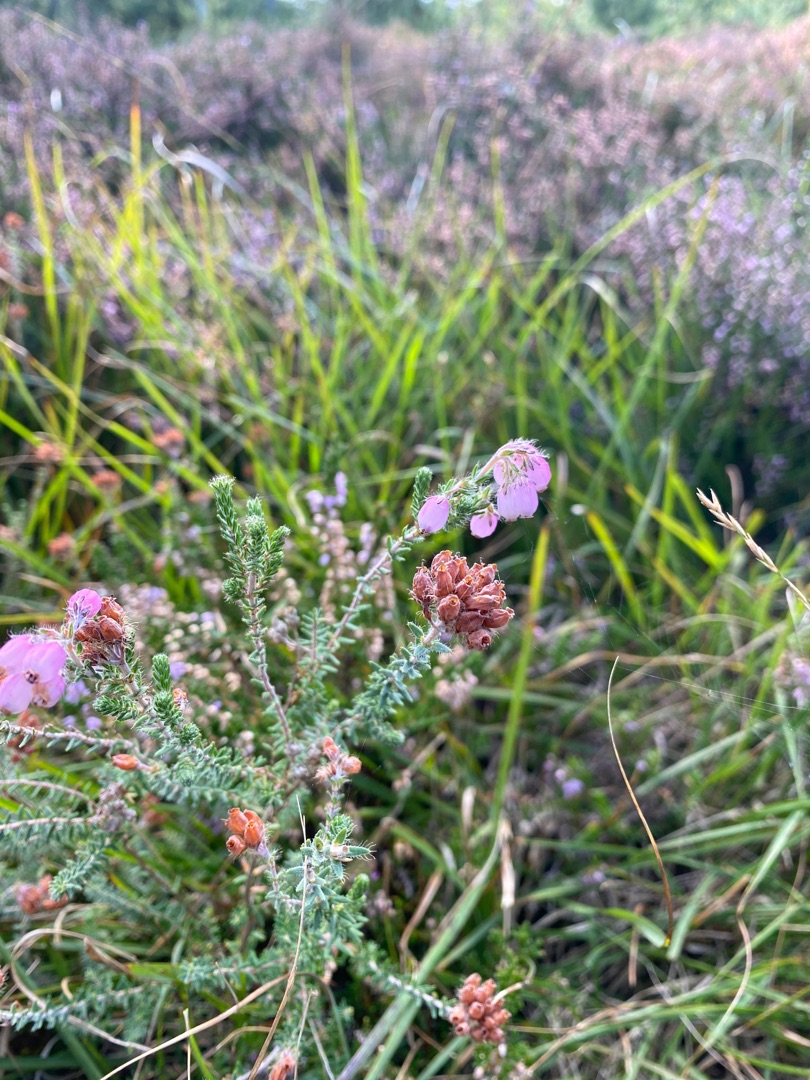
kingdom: Plantae
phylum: Tracheophyta
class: Magnoliopsida
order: Ericales
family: Ericaceae
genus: Erica
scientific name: Erica tetralix
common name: Klokkelyng
